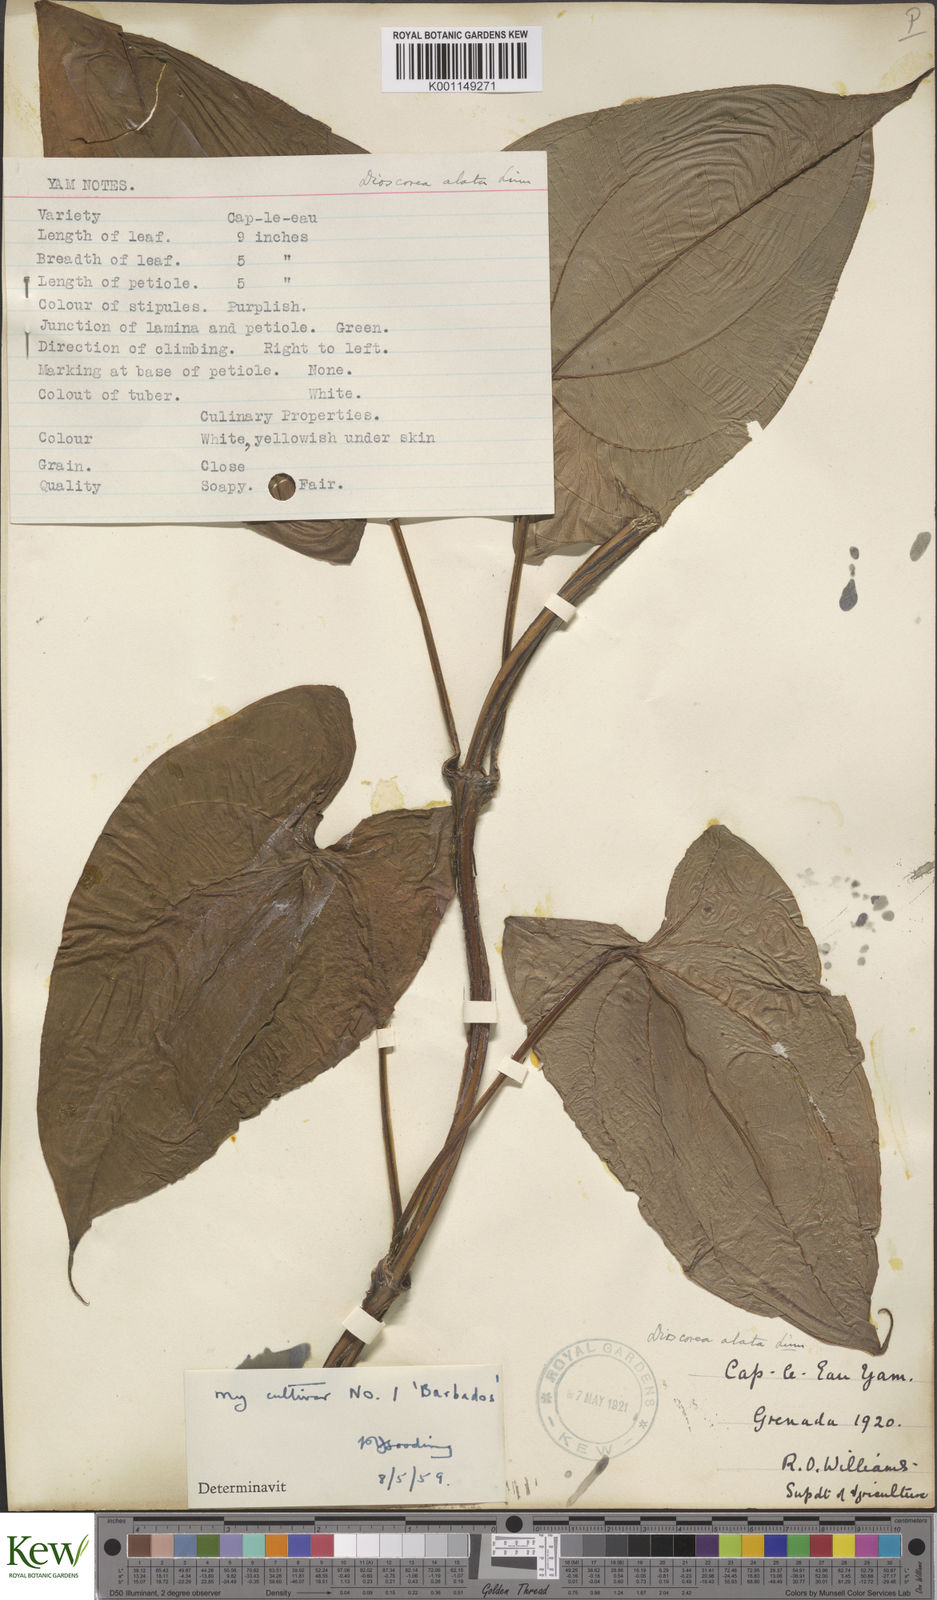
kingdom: Plantae
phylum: Tracheophyta
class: Liliopsida
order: Dioscoreales
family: Dioscoreaceae
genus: Dioscorea
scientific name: Dioscorea alata
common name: Water yam
